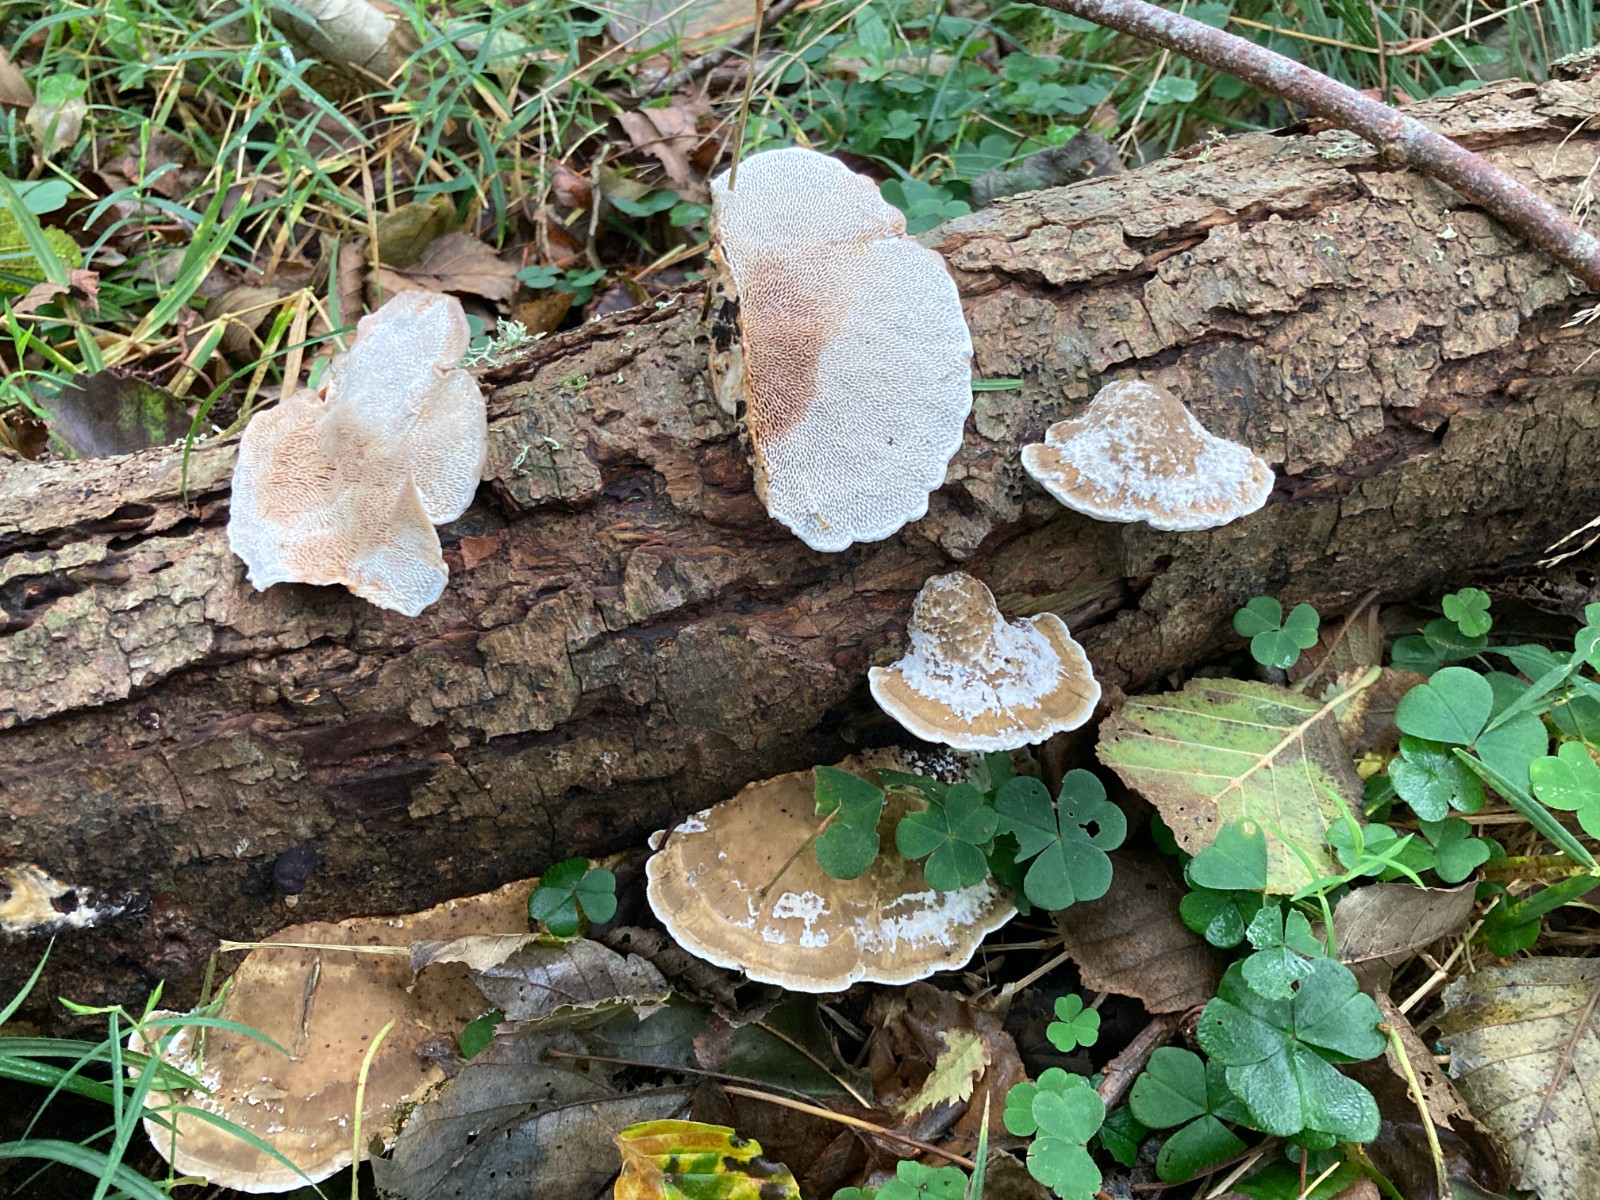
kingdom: Fungi
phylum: Basidiomycota
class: Agaricomycetes
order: Polyporales
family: Polyporaceae
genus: Daedaleopsis
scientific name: Daedaleopsis confragosa
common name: rødmende læderporesvamp
